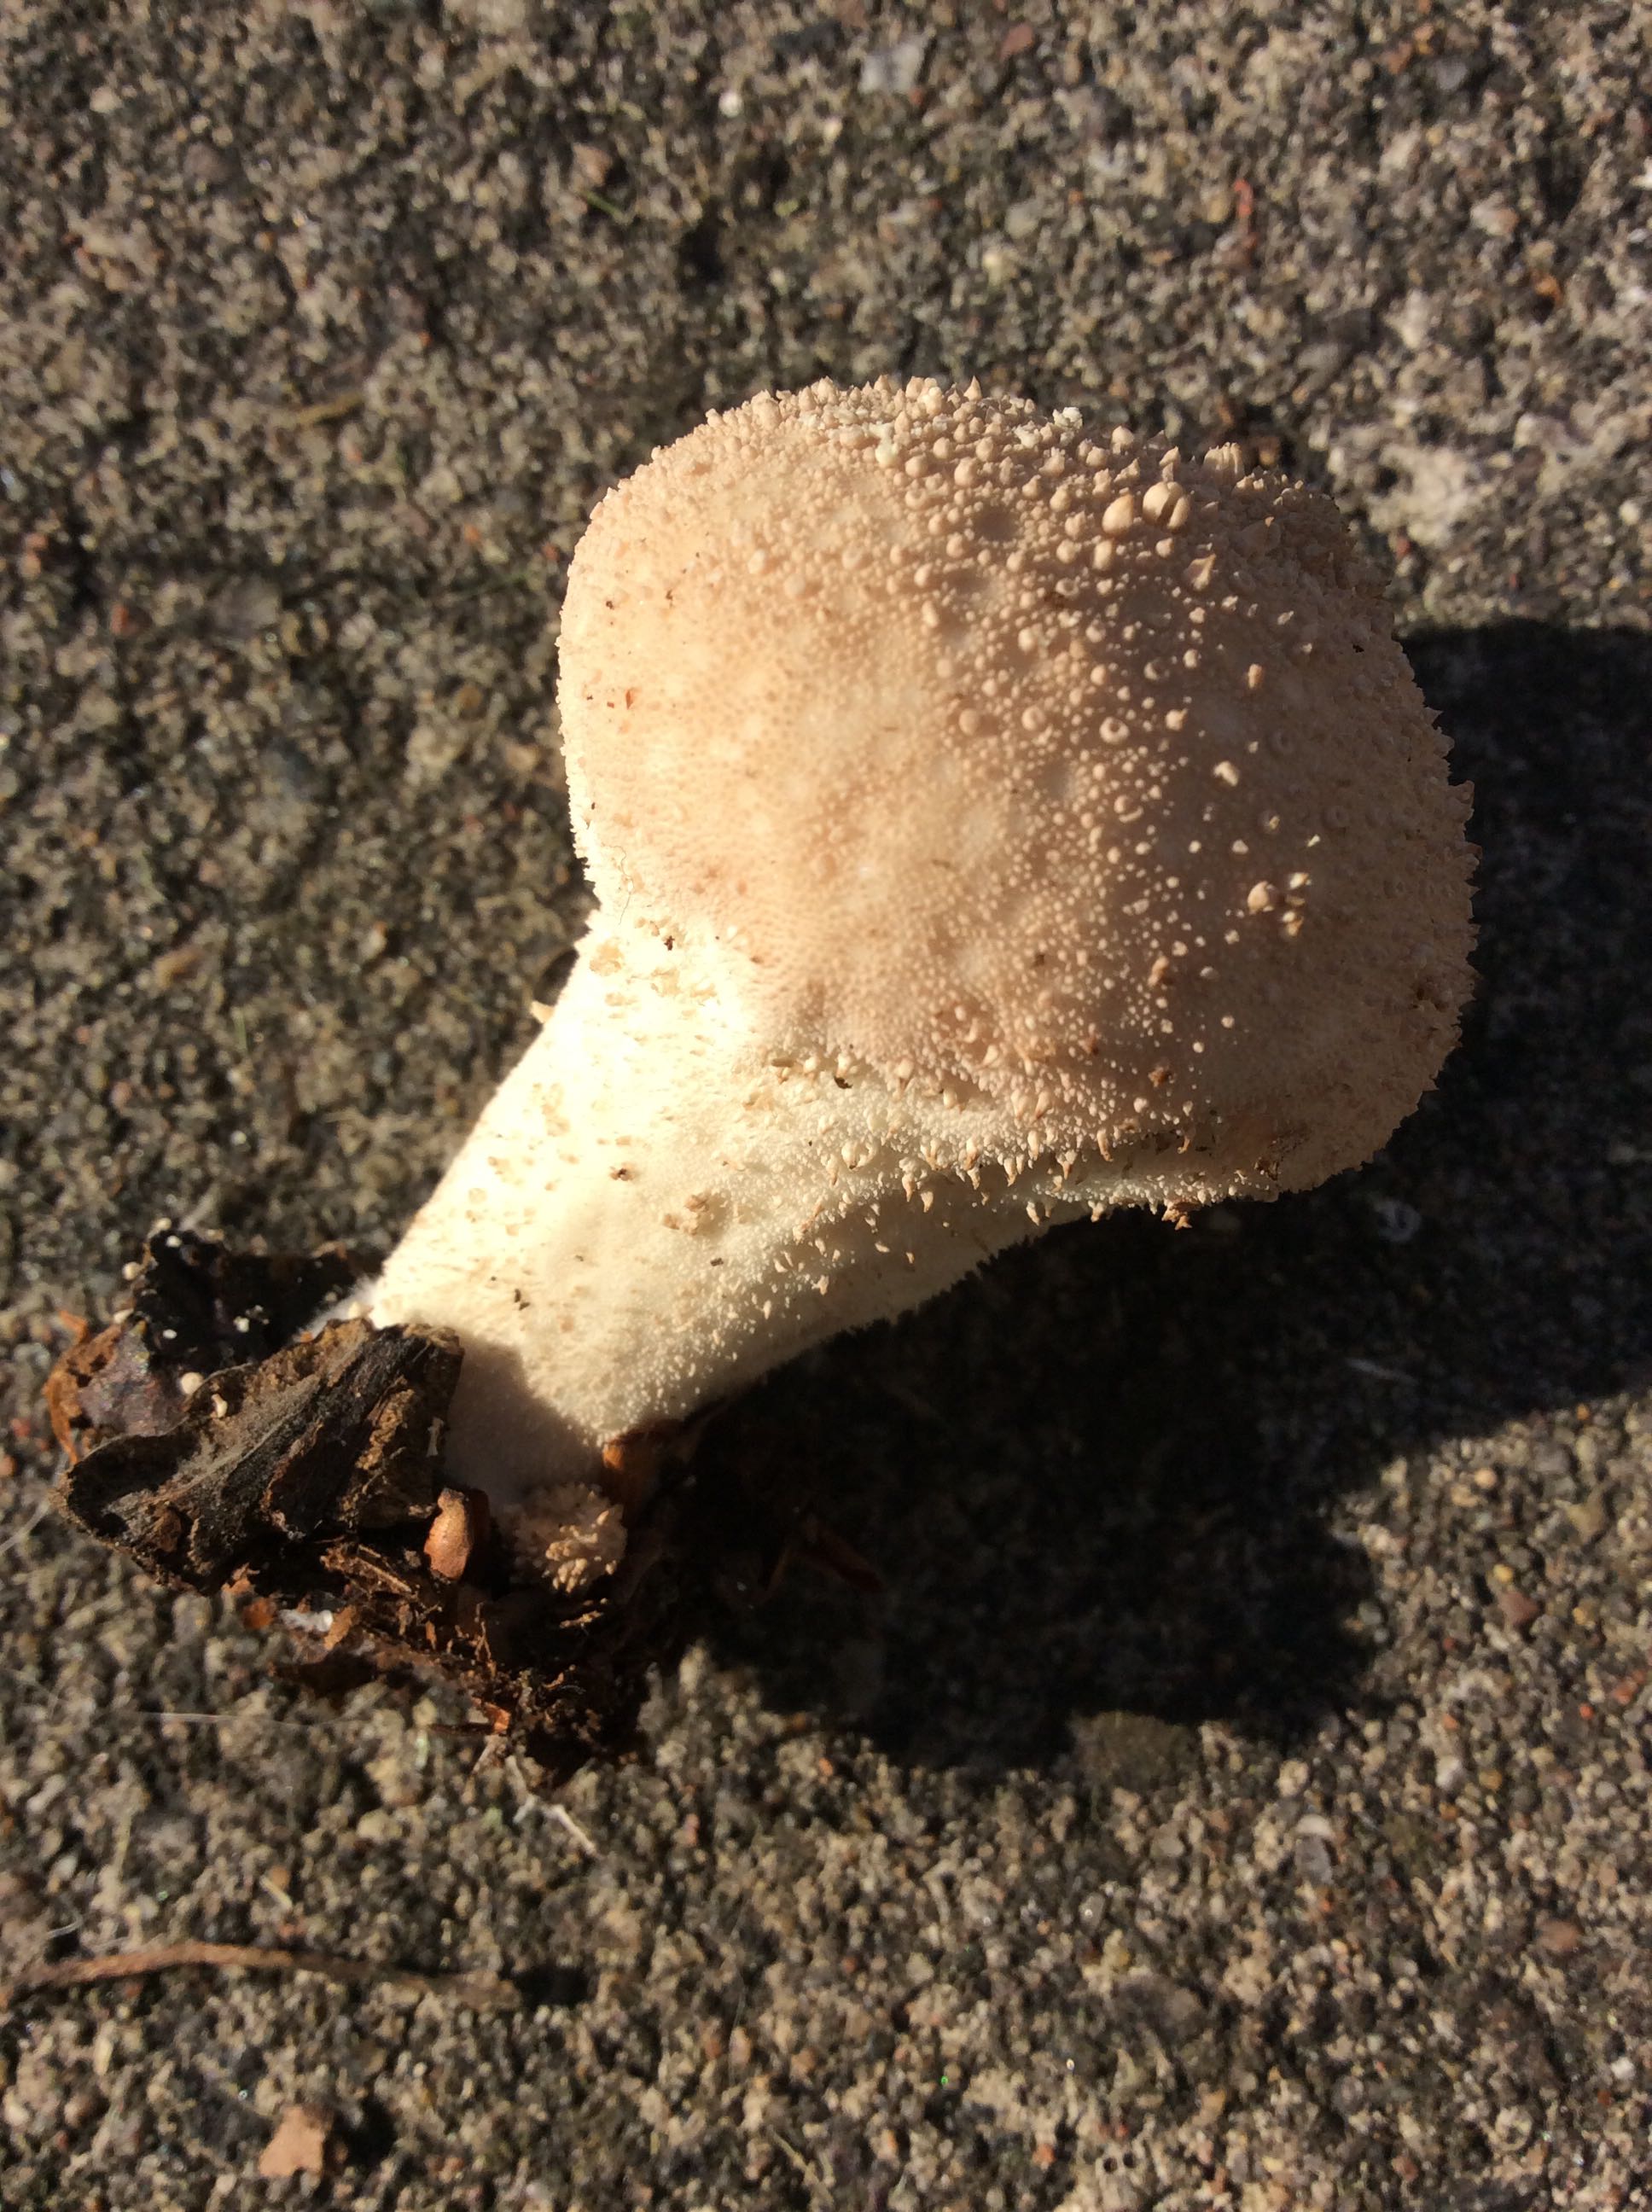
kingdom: Fungi
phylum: Basidiomycota
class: Agaricomycetes
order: Agaricales
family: Lycoperdaceae
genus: Lycoperdon
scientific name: Lycoperdon perlatum
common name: krystal-støvbold
